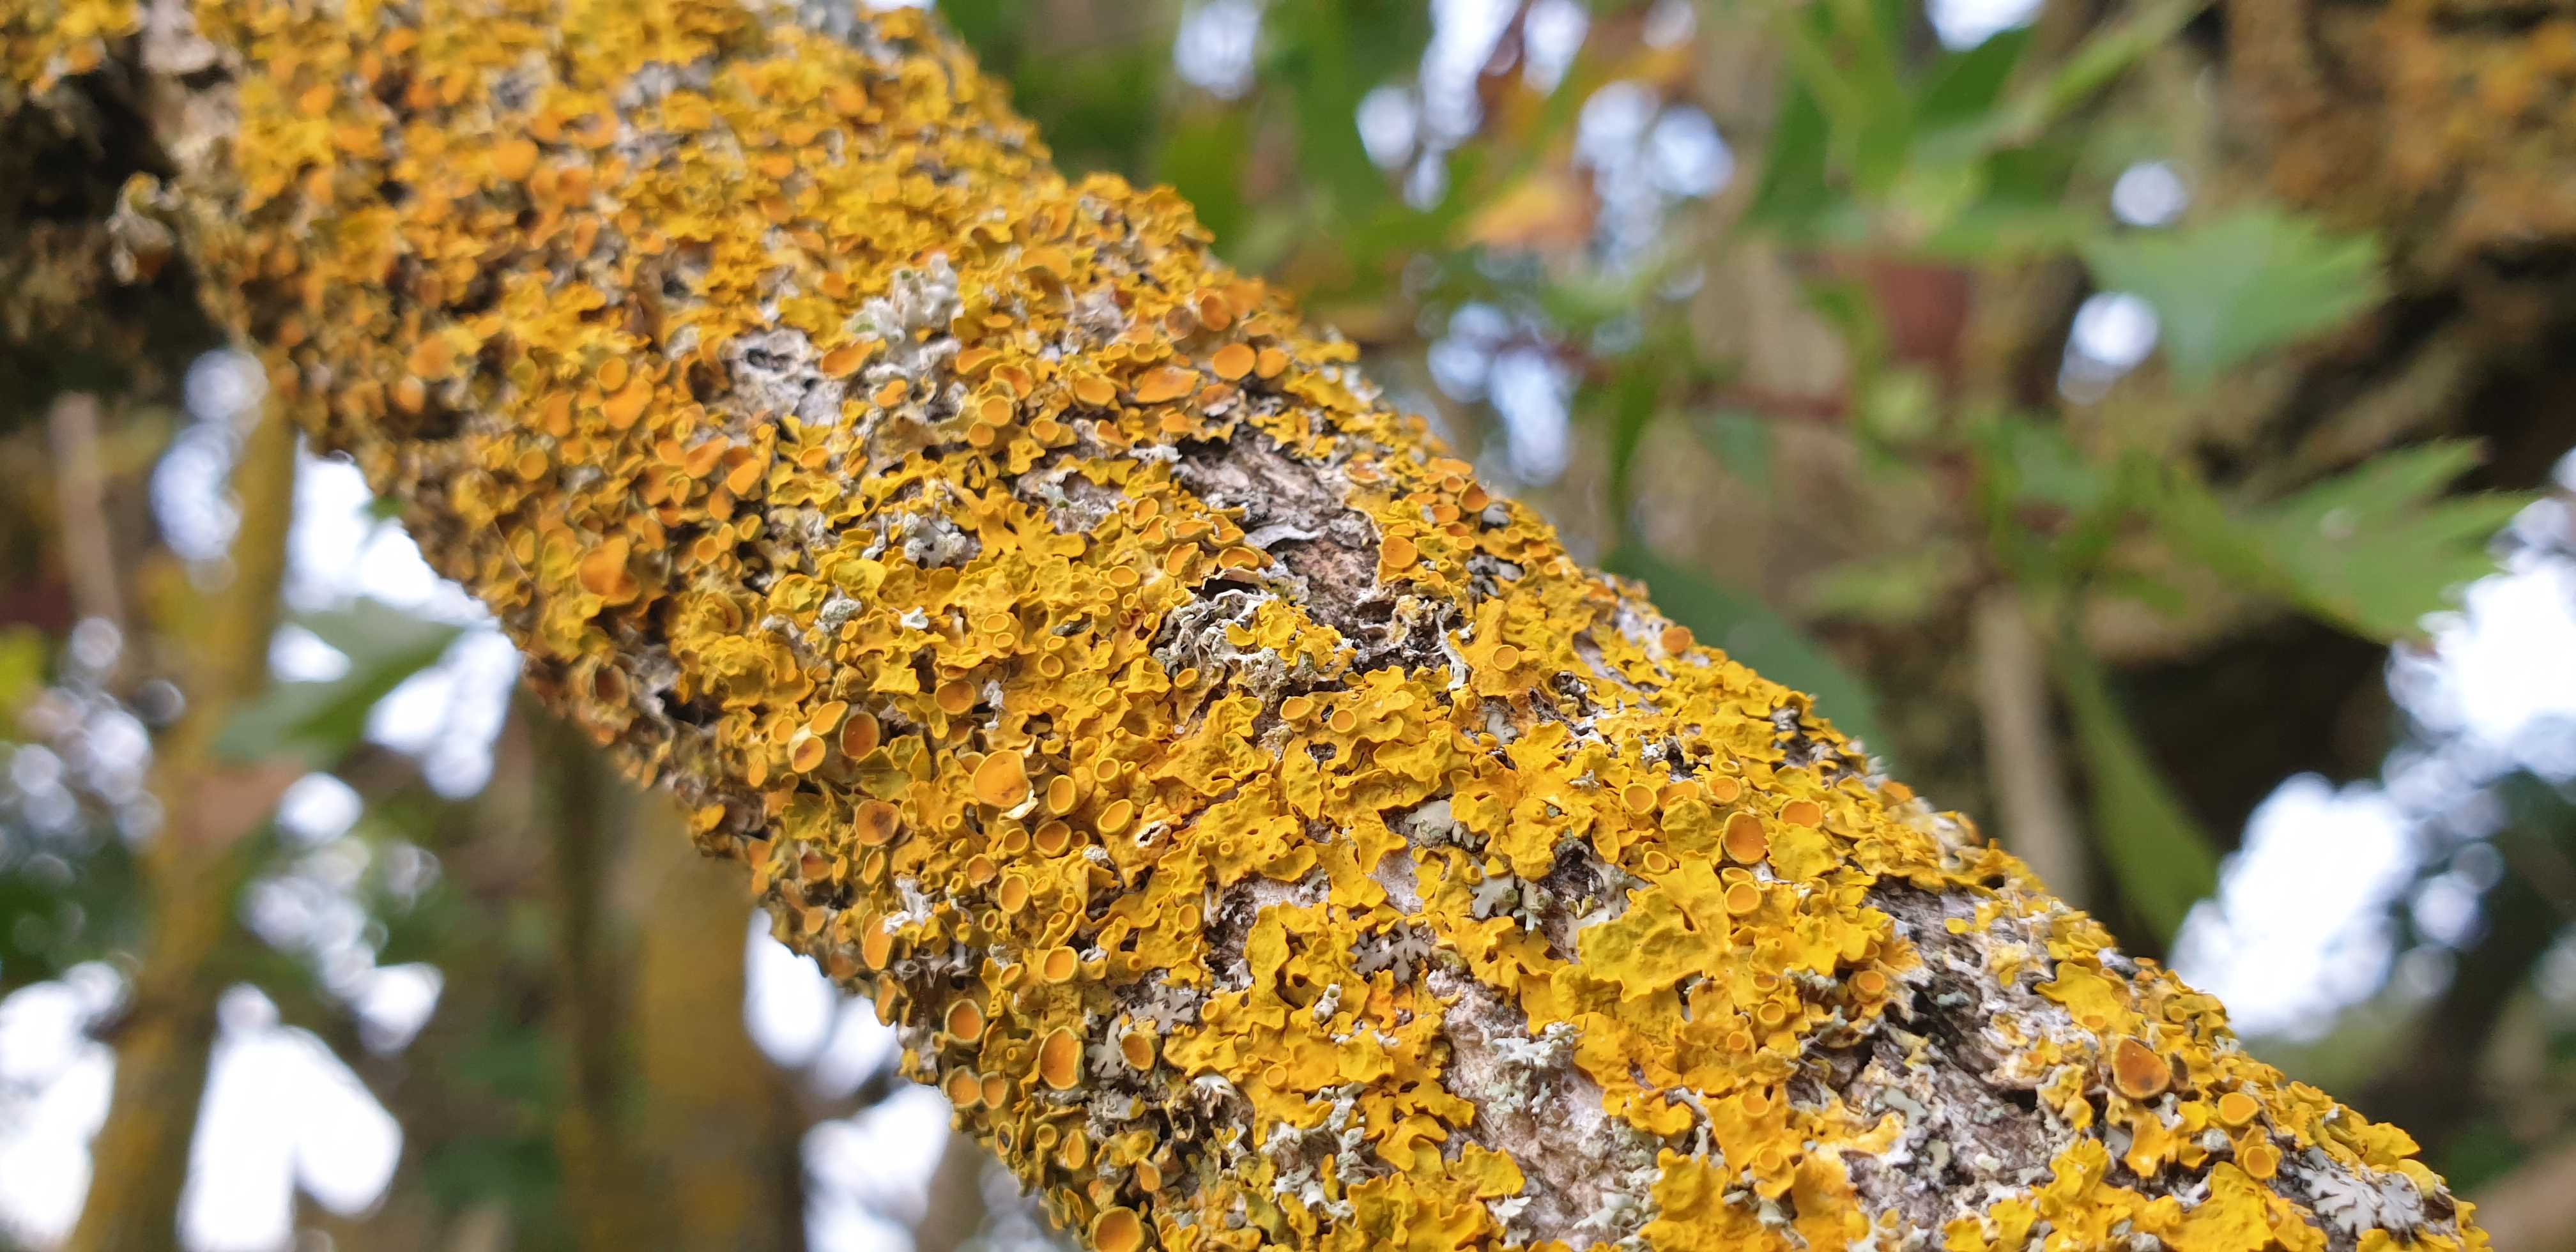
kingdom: Fungi
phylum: Ascomycota
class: Lecanoromycetes
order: Teloschistales
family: Teloschistaceae
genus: Xanthoria
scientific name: Xanthoria parietina
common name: almindelig væggelav
